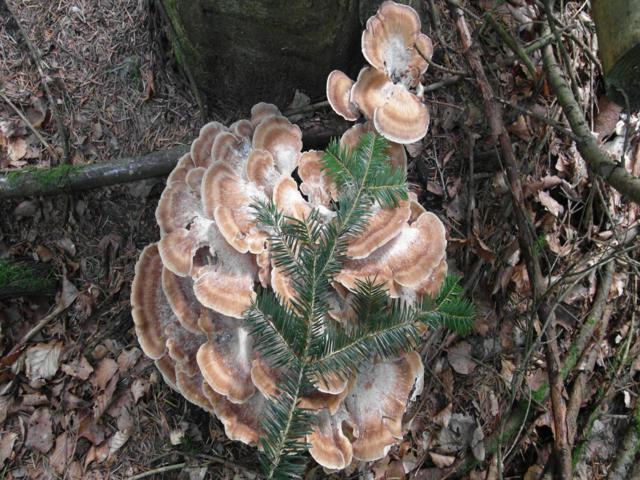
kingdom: Fungi
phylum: Basidiomycota
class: Agaricomycetes
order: Polyporales
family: Meripilaceae
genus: Meripilus
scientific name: Meripilus giganteus
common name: kæmpeporesvamp
